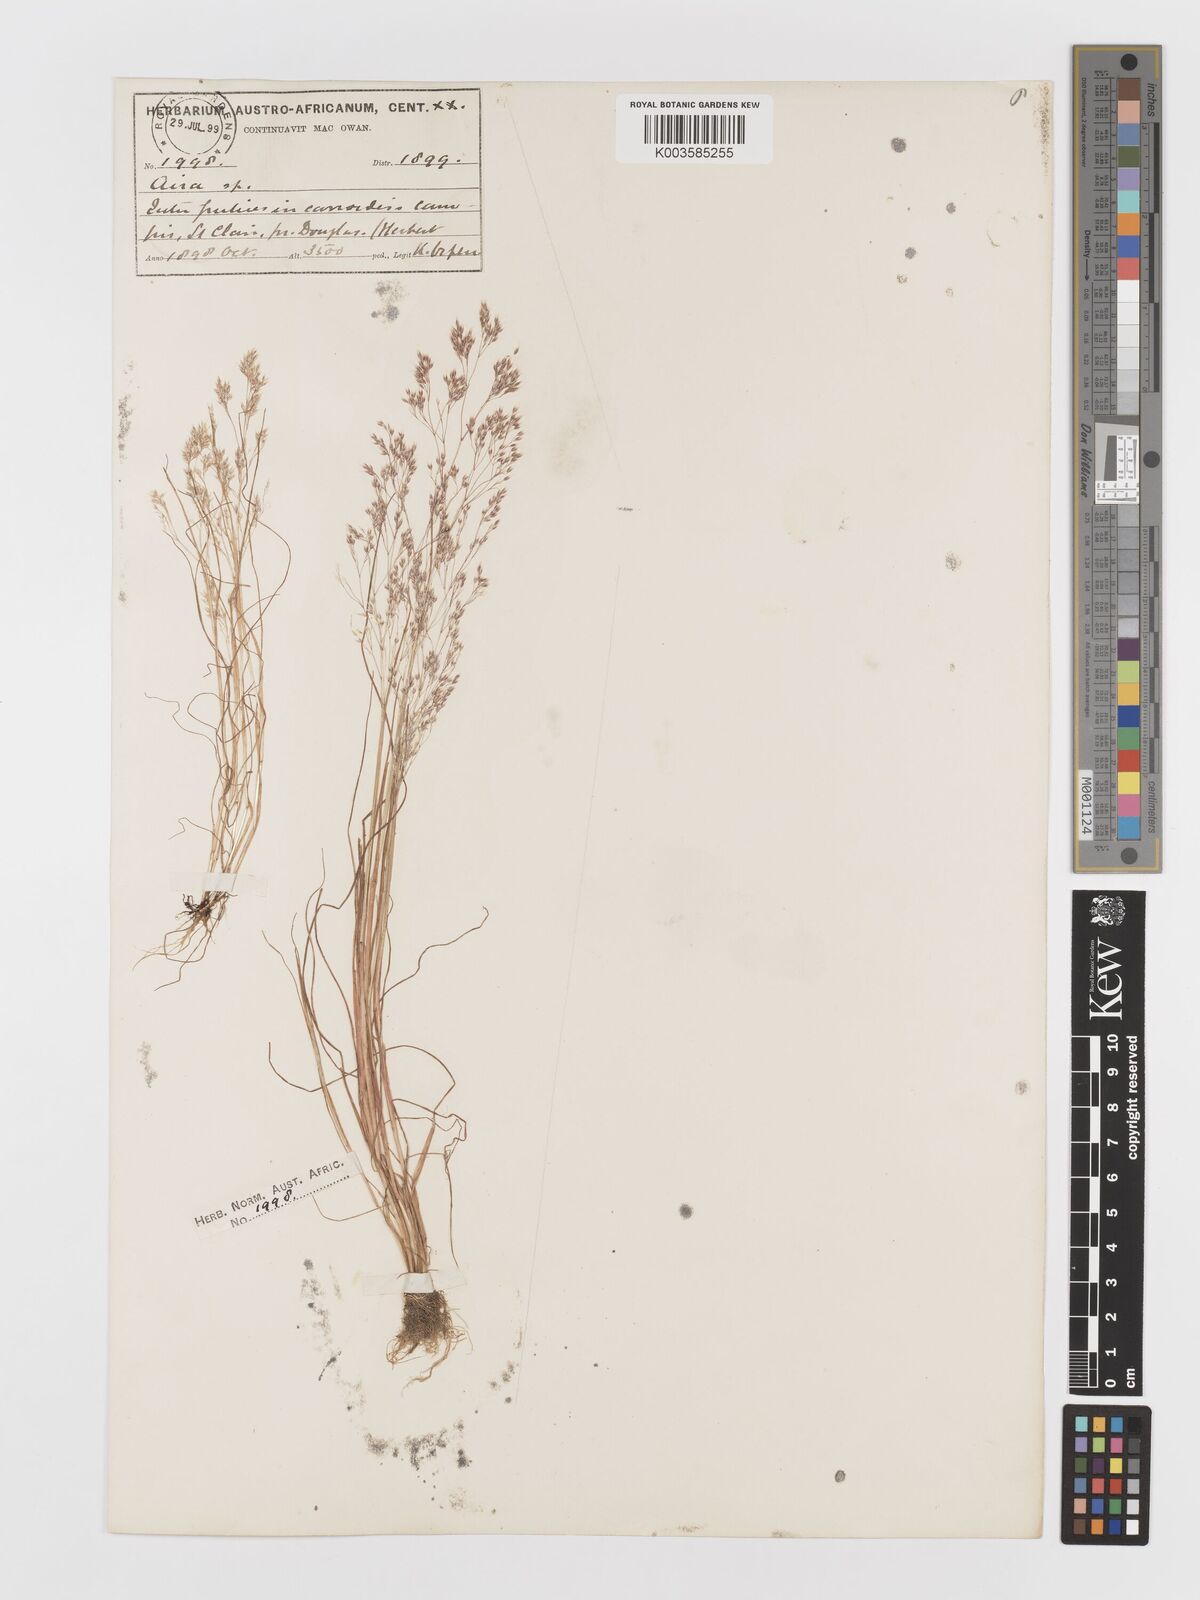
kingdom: Plantae
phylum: Tracheophyta
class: Liliopsida
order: Poales
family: Poaceae
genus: Aira
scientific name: Aira caryophyllea
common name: Silver hairgrass
